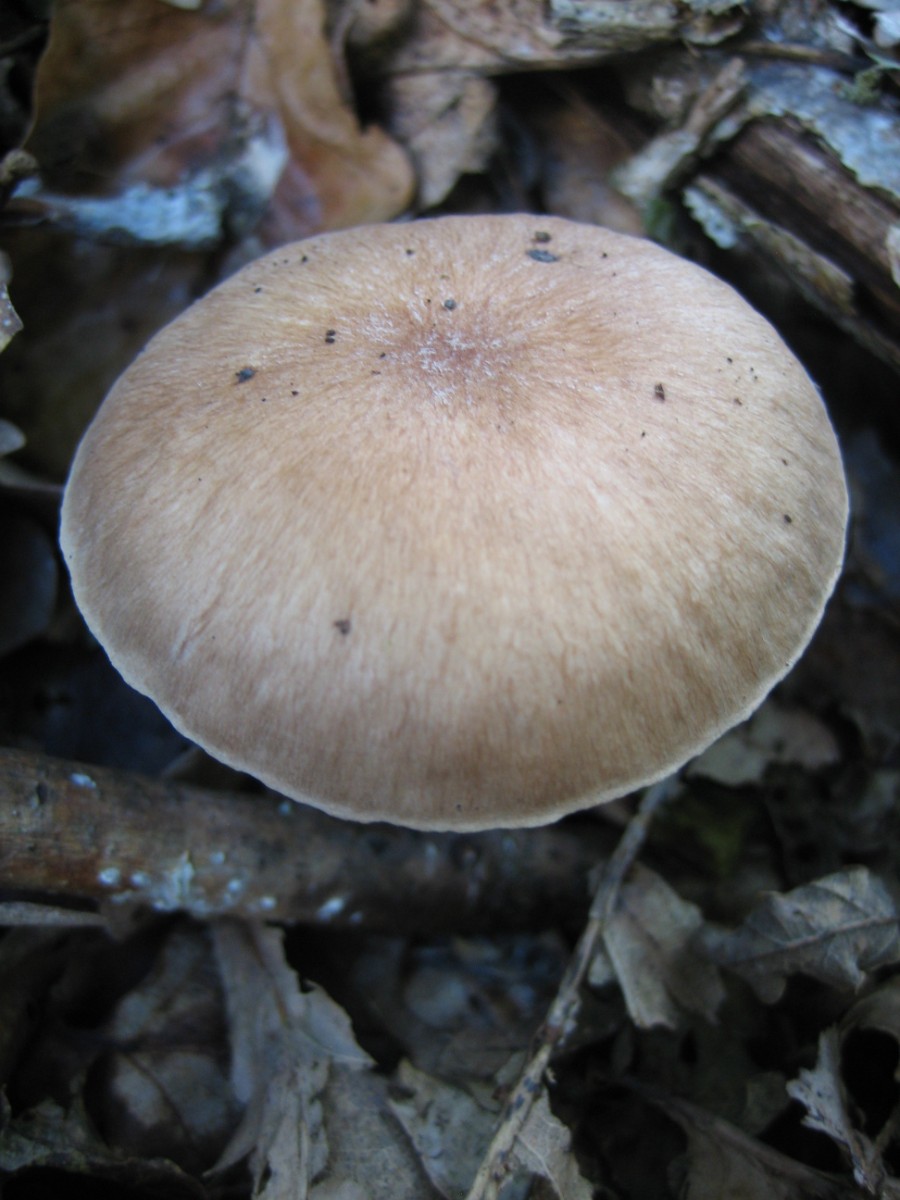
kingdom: Fungi
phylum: Basidiomycota
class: Agaricomycetes
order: Agaricales
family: Omphalotaceae
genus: Collybiopsis
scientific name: Collybiopsis peronata
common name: bestøvlet fladhat
